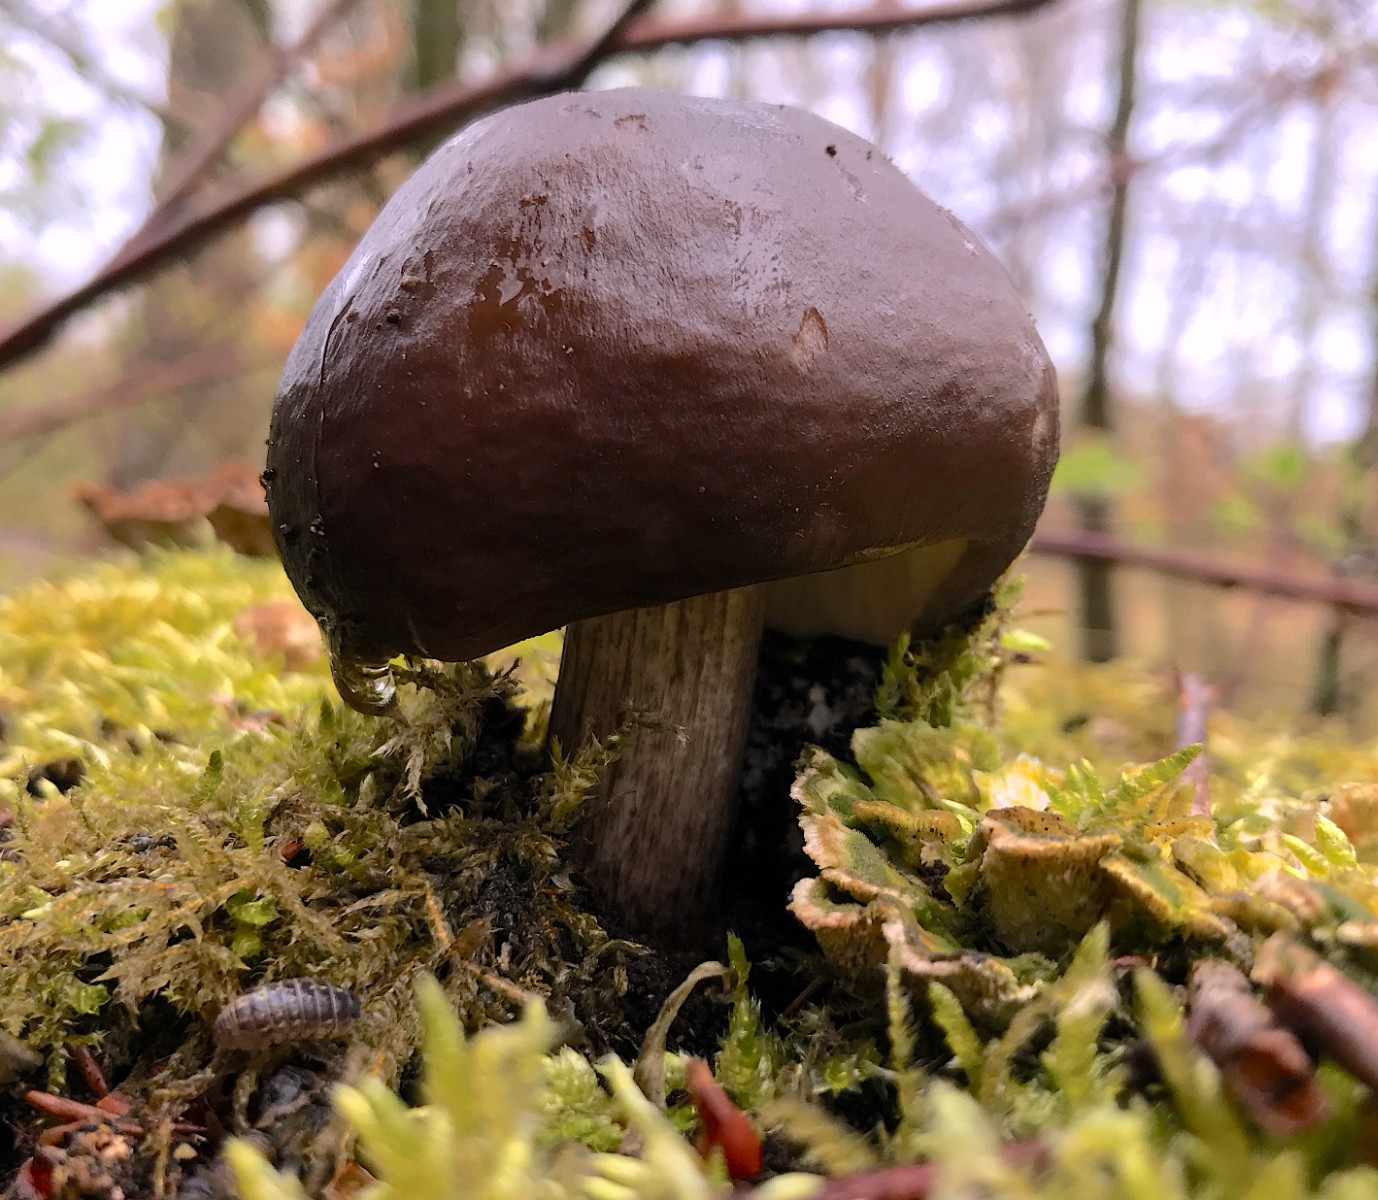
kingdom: Fungi
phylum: Basidiomycota
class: Agaricomycetes
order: Agaricales
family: Pluteaceae
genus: Pluteus
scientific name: Pluteus cervinus
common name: sodfarvet skærmhat
